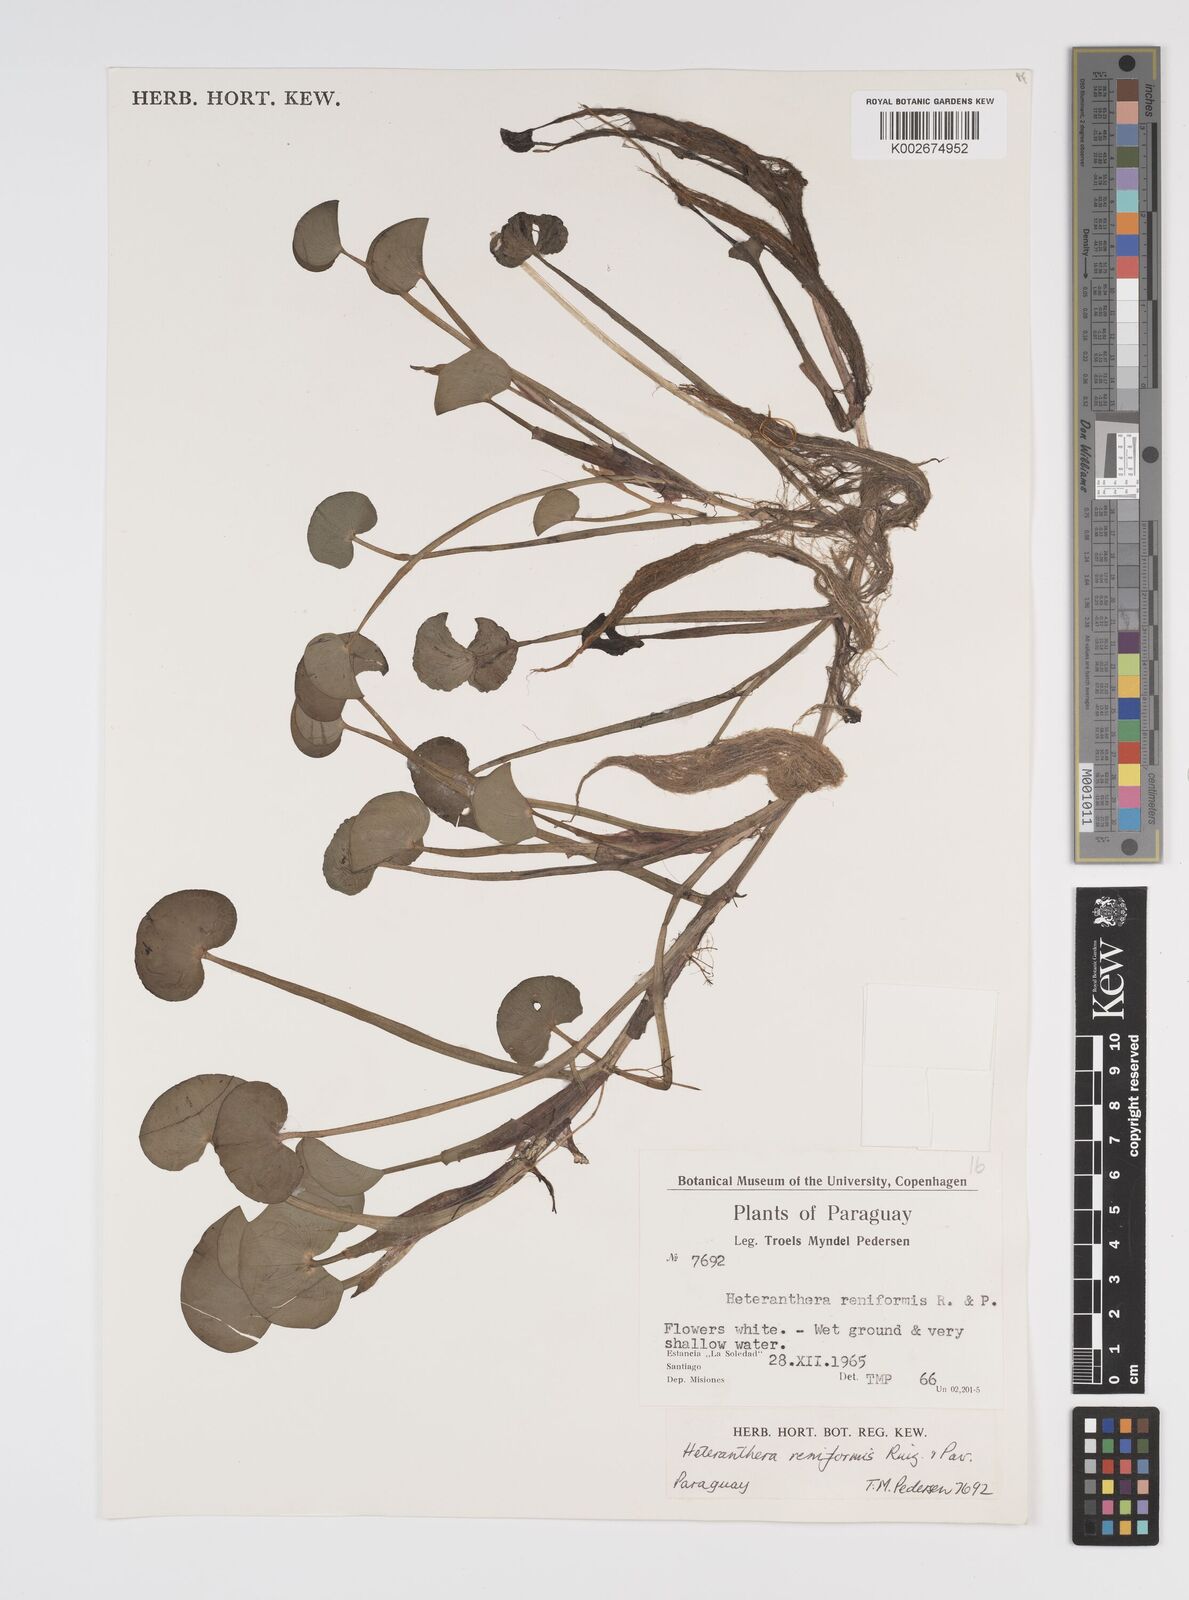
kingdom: Plantae
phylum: Tracheophyta
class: Liliopsida
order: Commelinales
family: Pontederiaceae
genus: Heteranthera
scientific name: Heteranthera reniformis
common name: Kidneyleaf mudplantain
